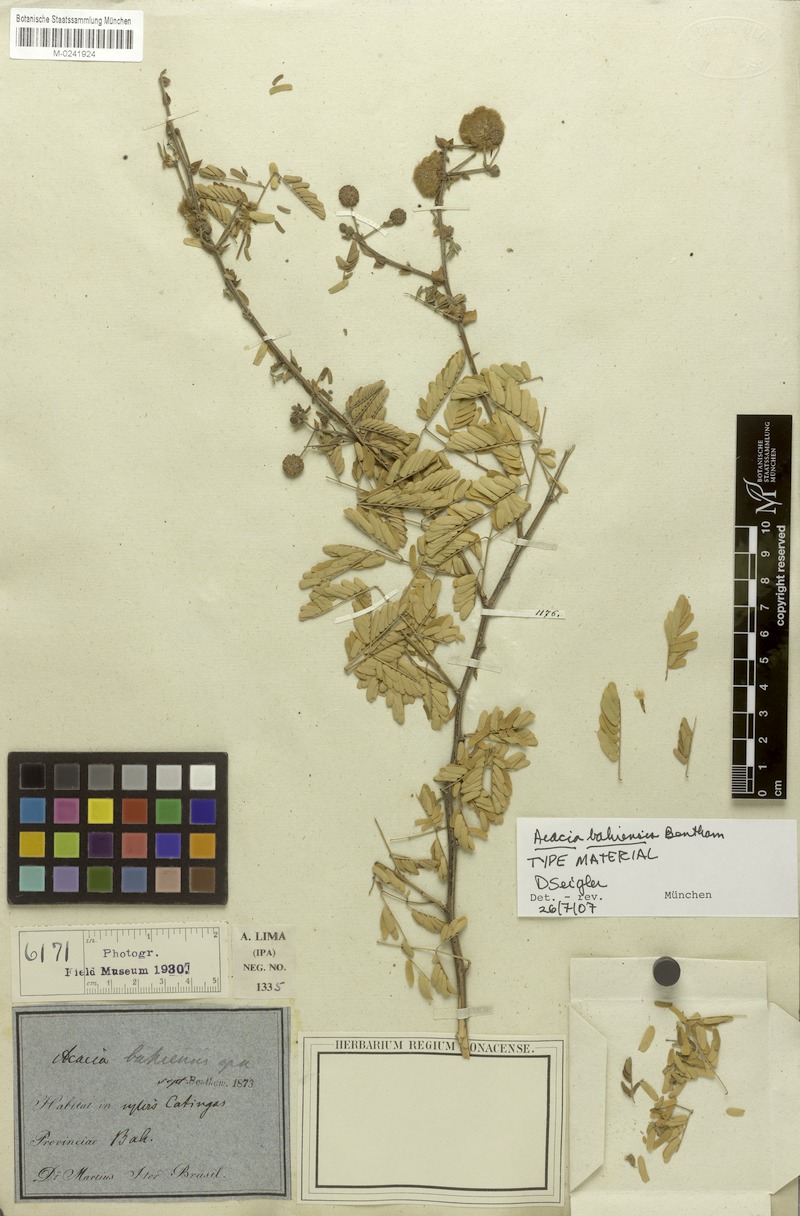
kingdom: Plantae
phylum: Tracheophyta
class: Magnoliopsida
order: Fabales
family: Fabaceae
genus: Senegalia
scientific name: Senegalia bahiensis
